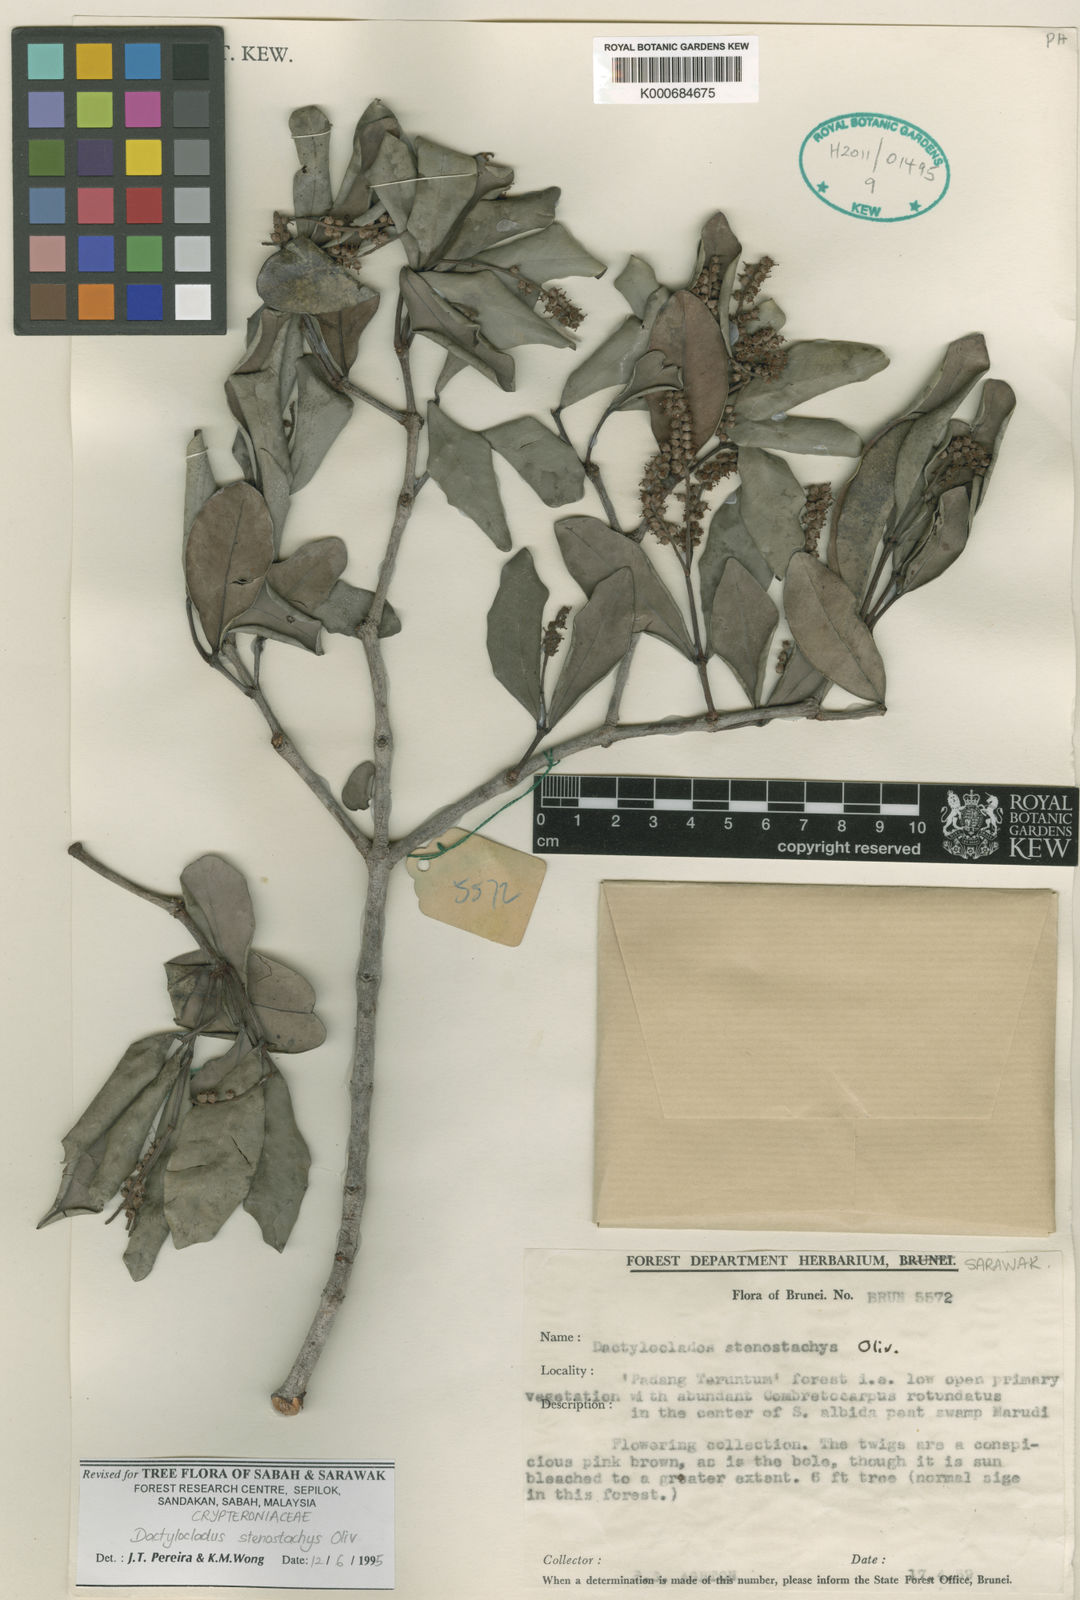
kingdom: Plantae
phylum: Tracheophyta
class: Magnoliopsida
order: Myrtales
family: Crypteroniaceae
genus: Dactylocladus
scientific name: Dactylocladus stenostachys
